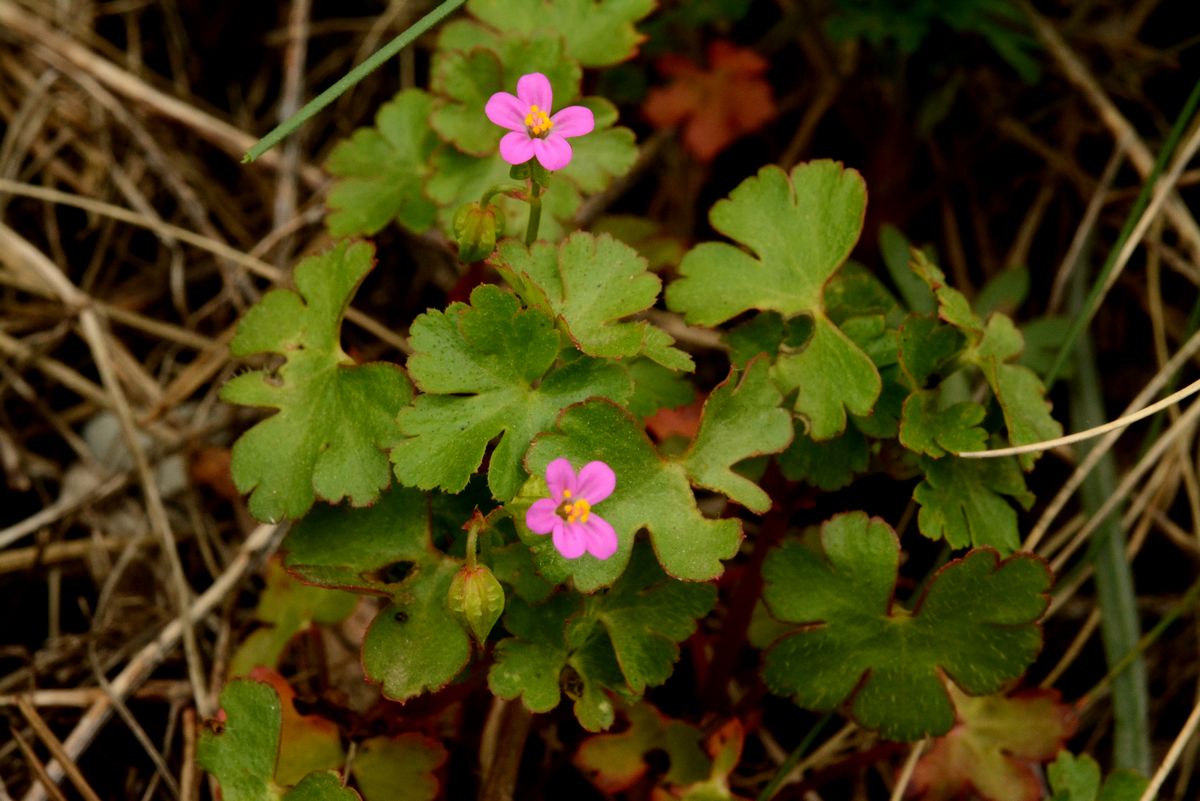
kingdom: Plantae
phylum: Tracheophyta
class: Magnoliopsida
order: Geraniales
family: Geraniaceae
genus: Geranium
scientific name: Geranium lucidum
